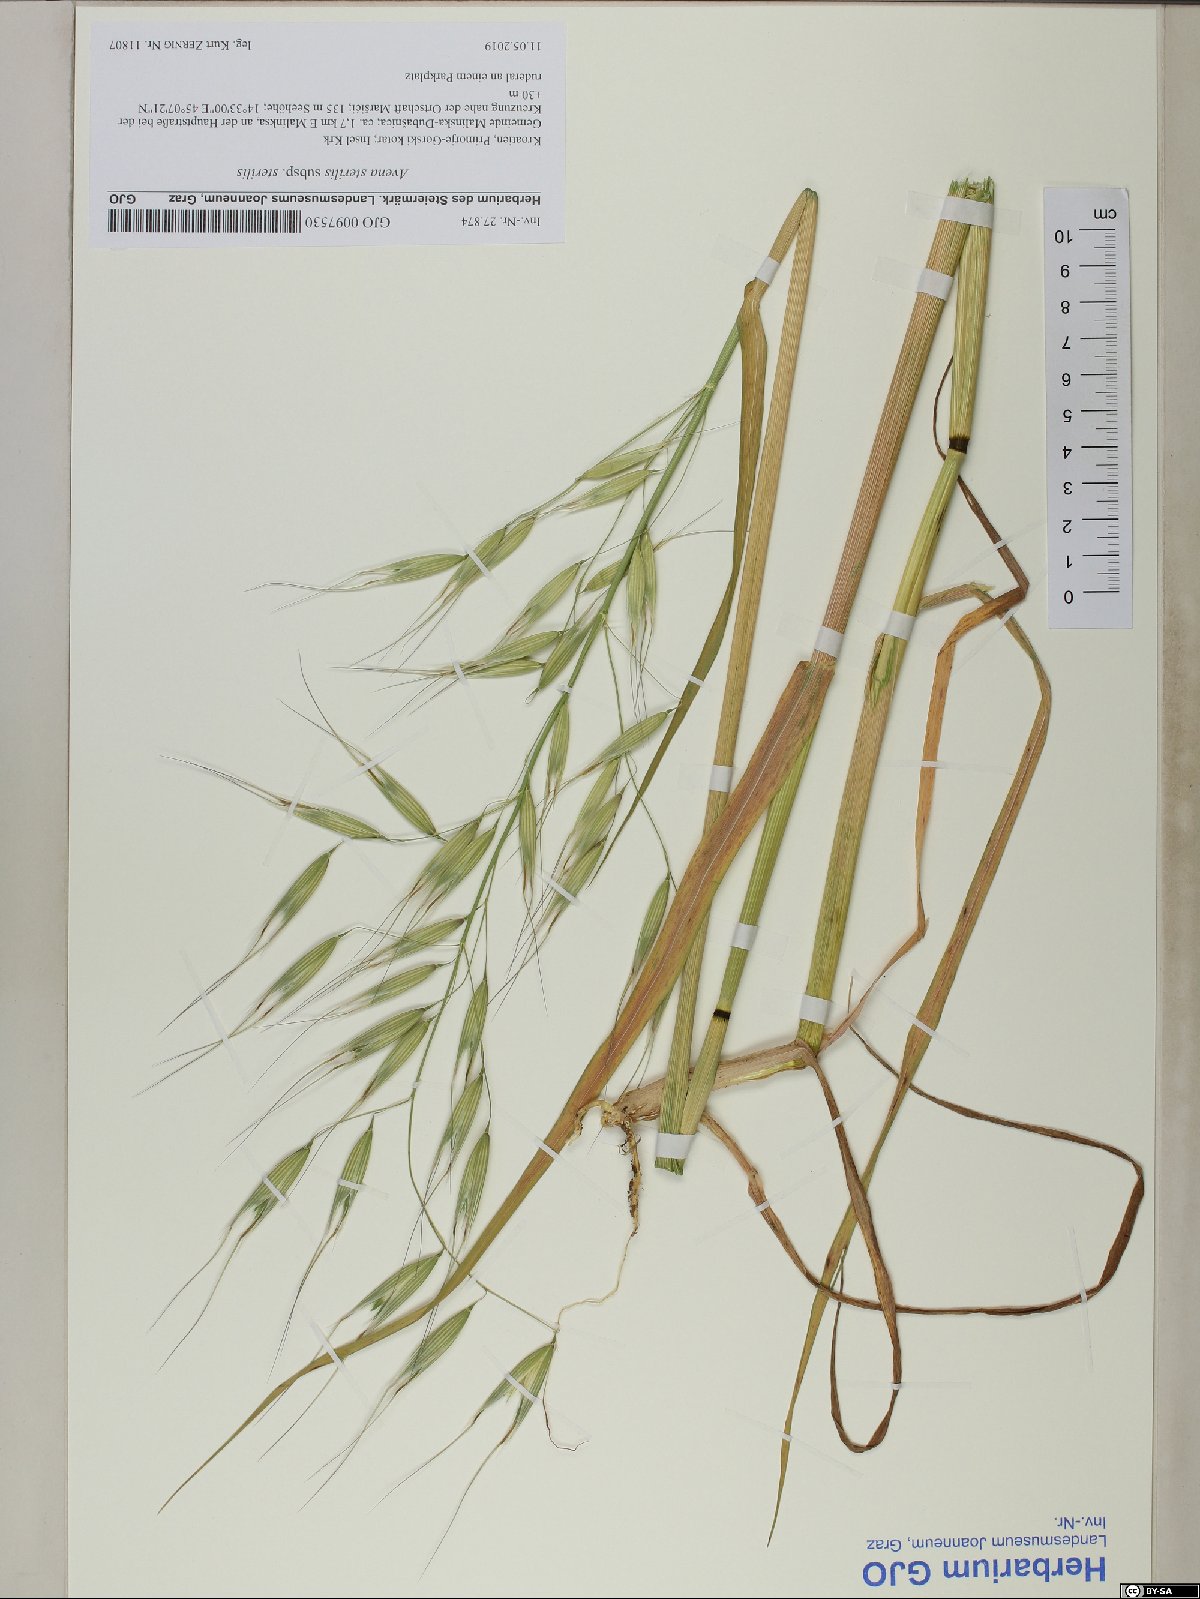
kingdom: Plantae
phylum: Tracheophyta
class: Liliopsida
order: Poales
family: Poaceae
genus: Avena
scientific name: Avena sterilis
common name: Animated oat
